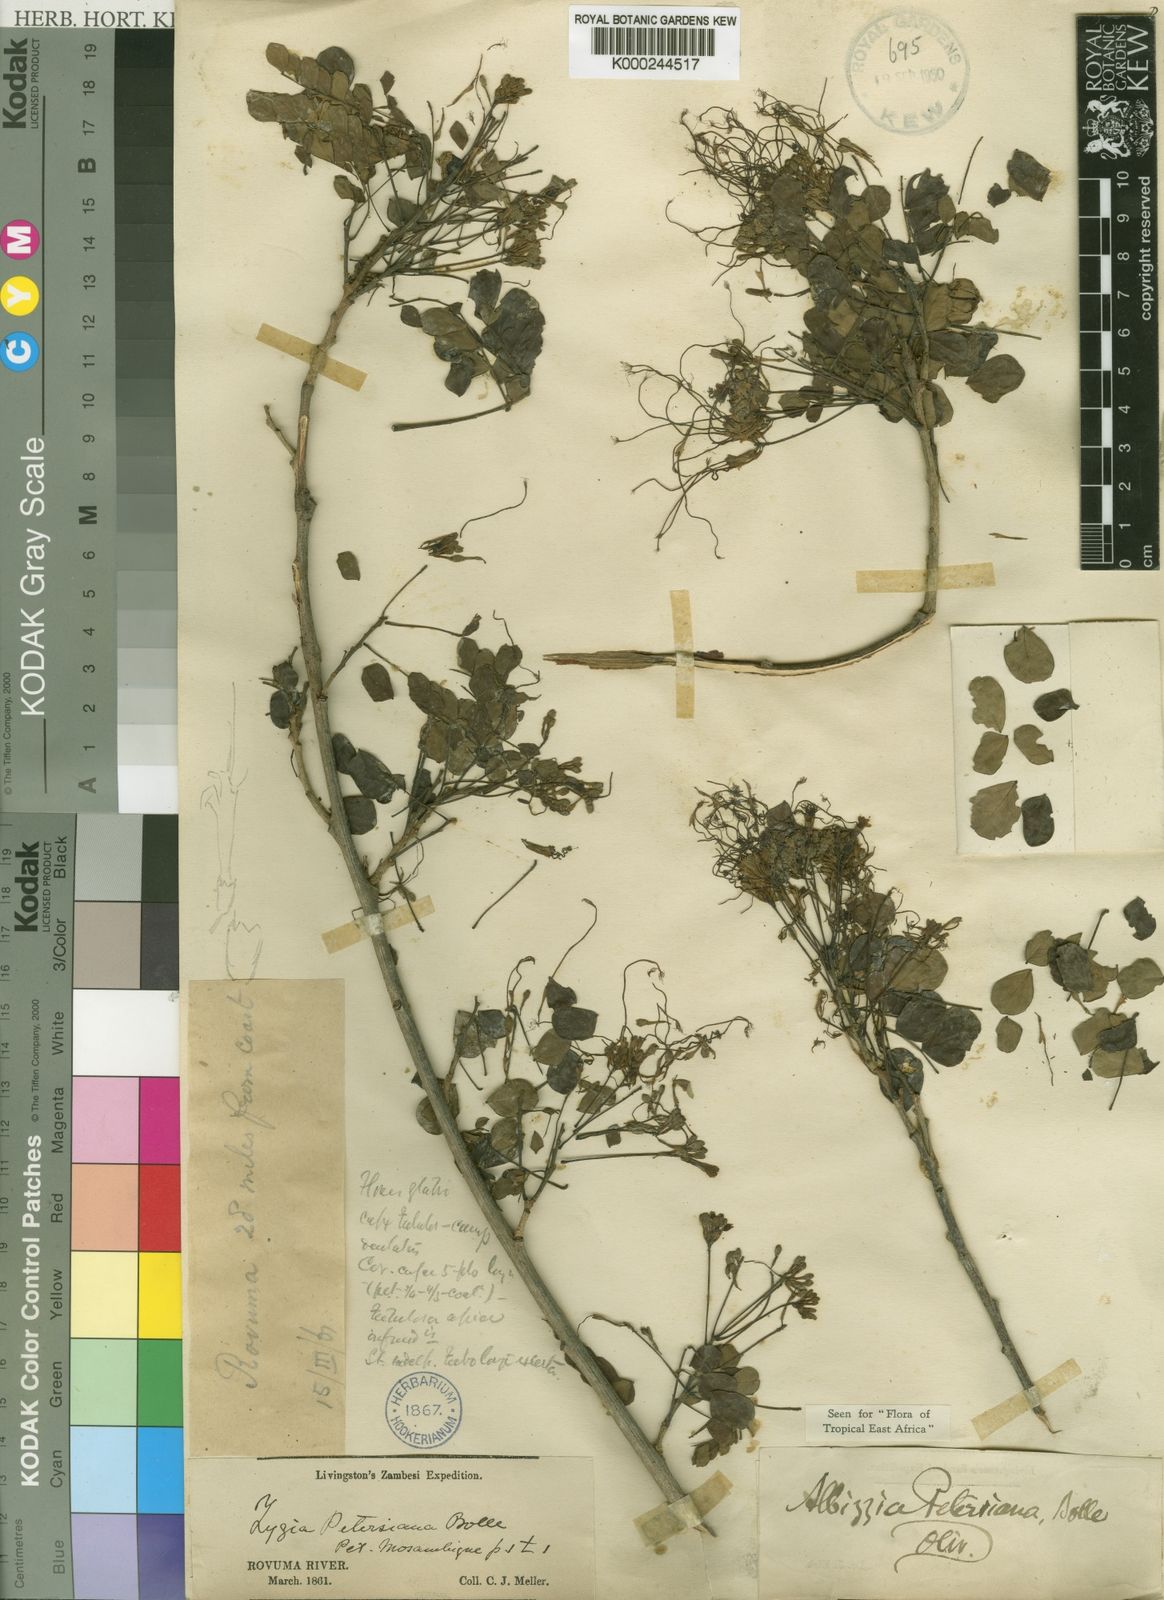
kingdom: Plantae
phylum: Tracheophyta
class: Magnoliopsida
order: Fabales
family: Fabaceae
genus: Albizia
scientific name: Albizia petersiana
